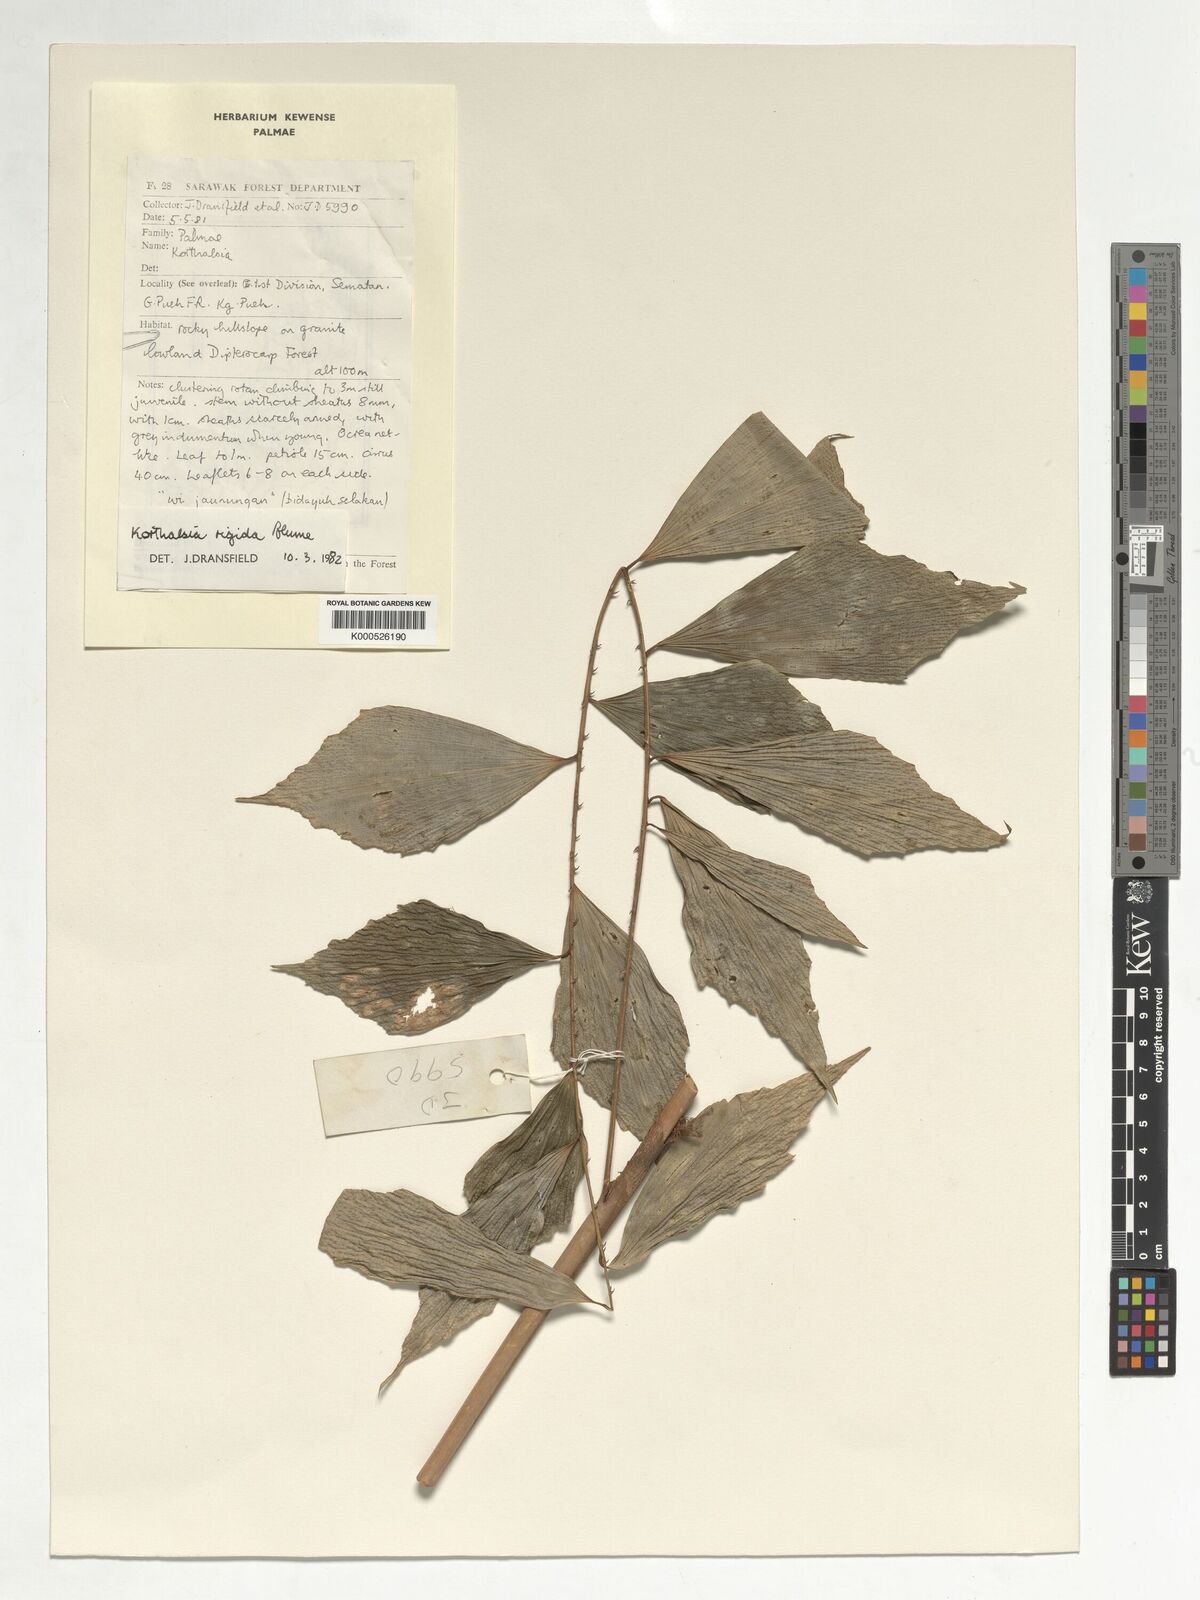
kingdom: Plantae
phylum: Tracheophyta
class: Liliopsida
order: Arecales
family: Arecaceae
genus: Korthalsia
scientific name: Korthalsia rigida
